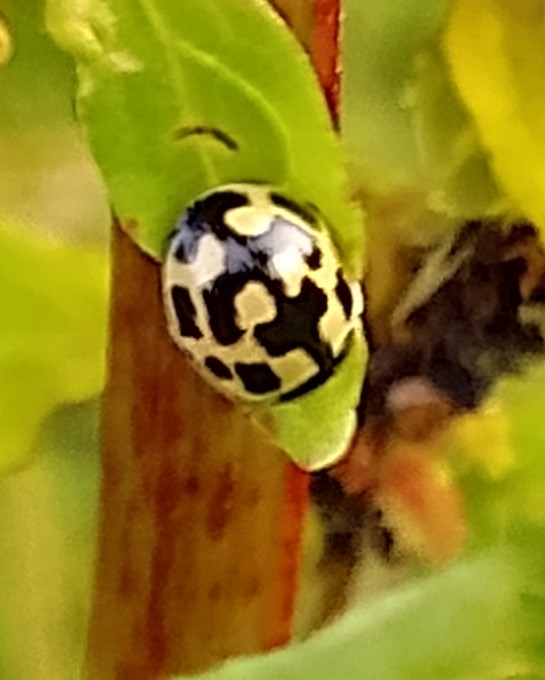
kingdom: Animalia
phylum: Arthropoda
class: Insecta
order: Coleoptera
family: Coccinellidae
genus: Propylaea
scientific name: Propylaea quatuordecimpunctata
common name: Skakbræt
